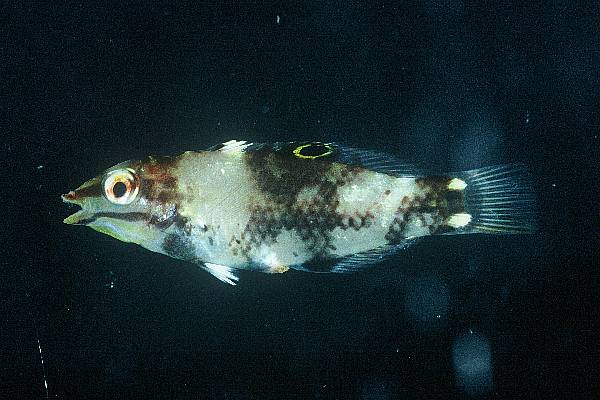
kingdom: Animalia
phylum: Chordata
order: Perciformes
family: Labridae
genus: Halichoeres
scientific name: Halichoeres hortulanus
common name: Checkerboard wrasse
